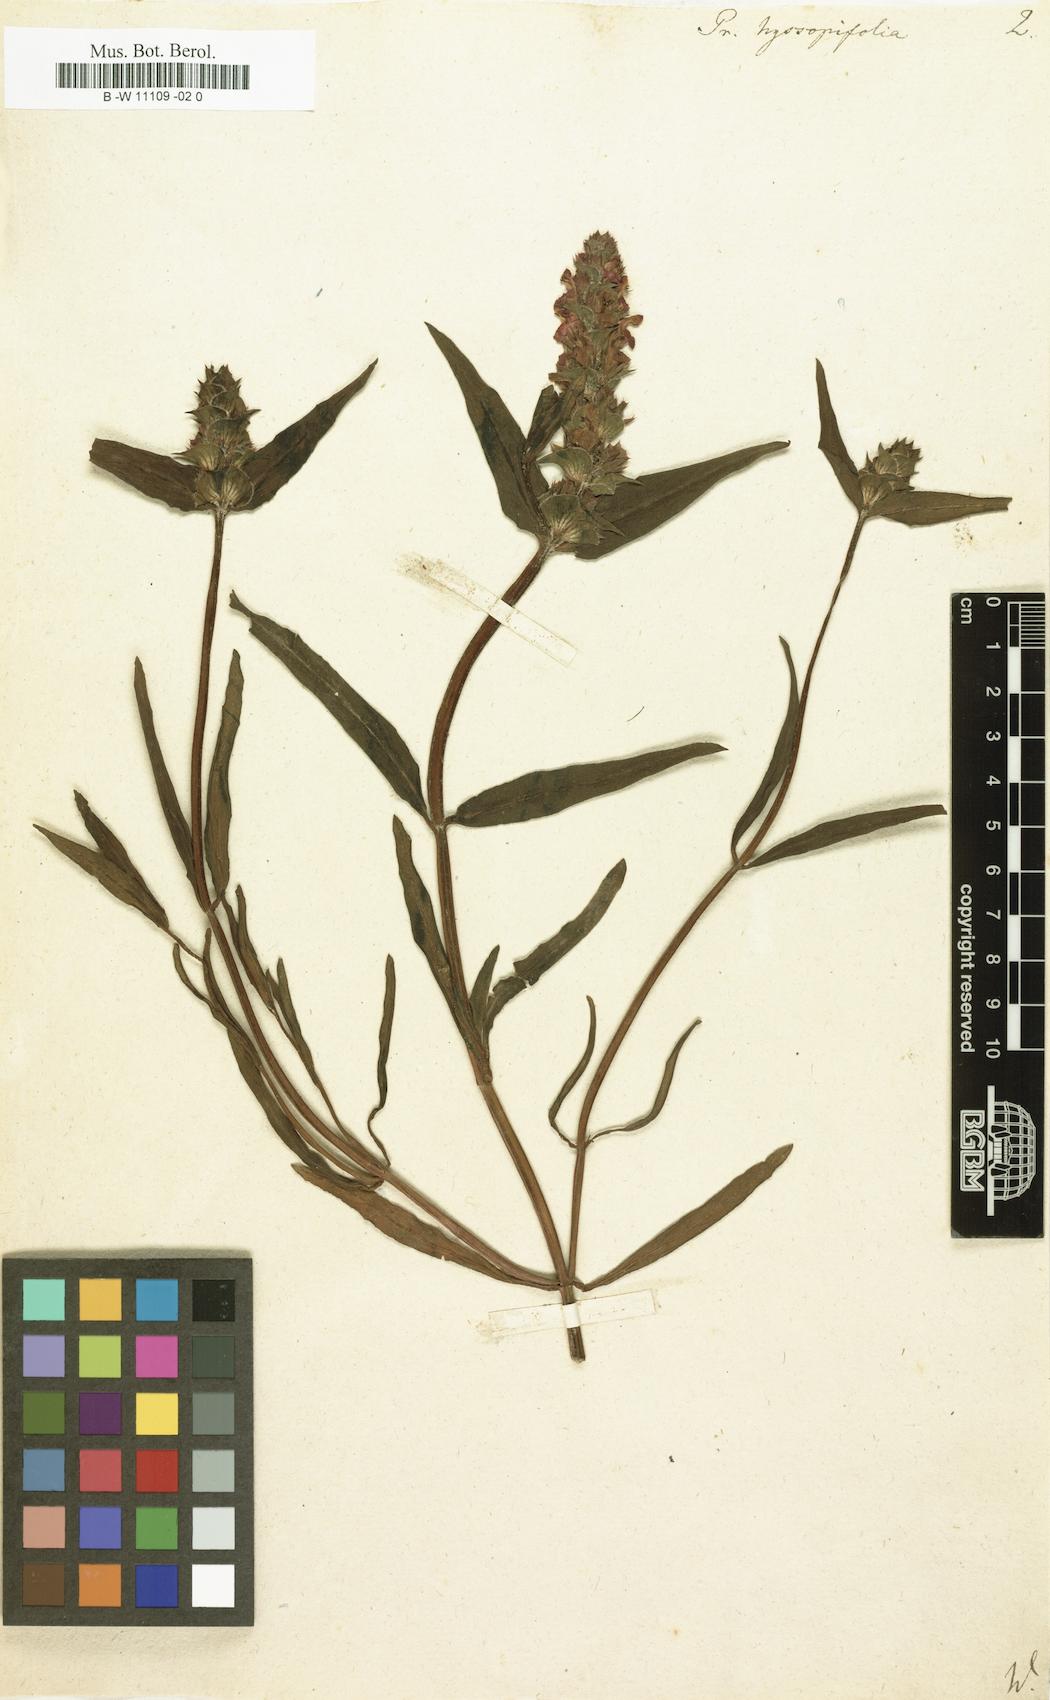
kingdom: Plantae
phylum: Tracheophyta
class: Magnoliopsida
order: Lamiales
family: Lamiaceae
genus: Prunella
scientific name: Prunella hyssopifolia
